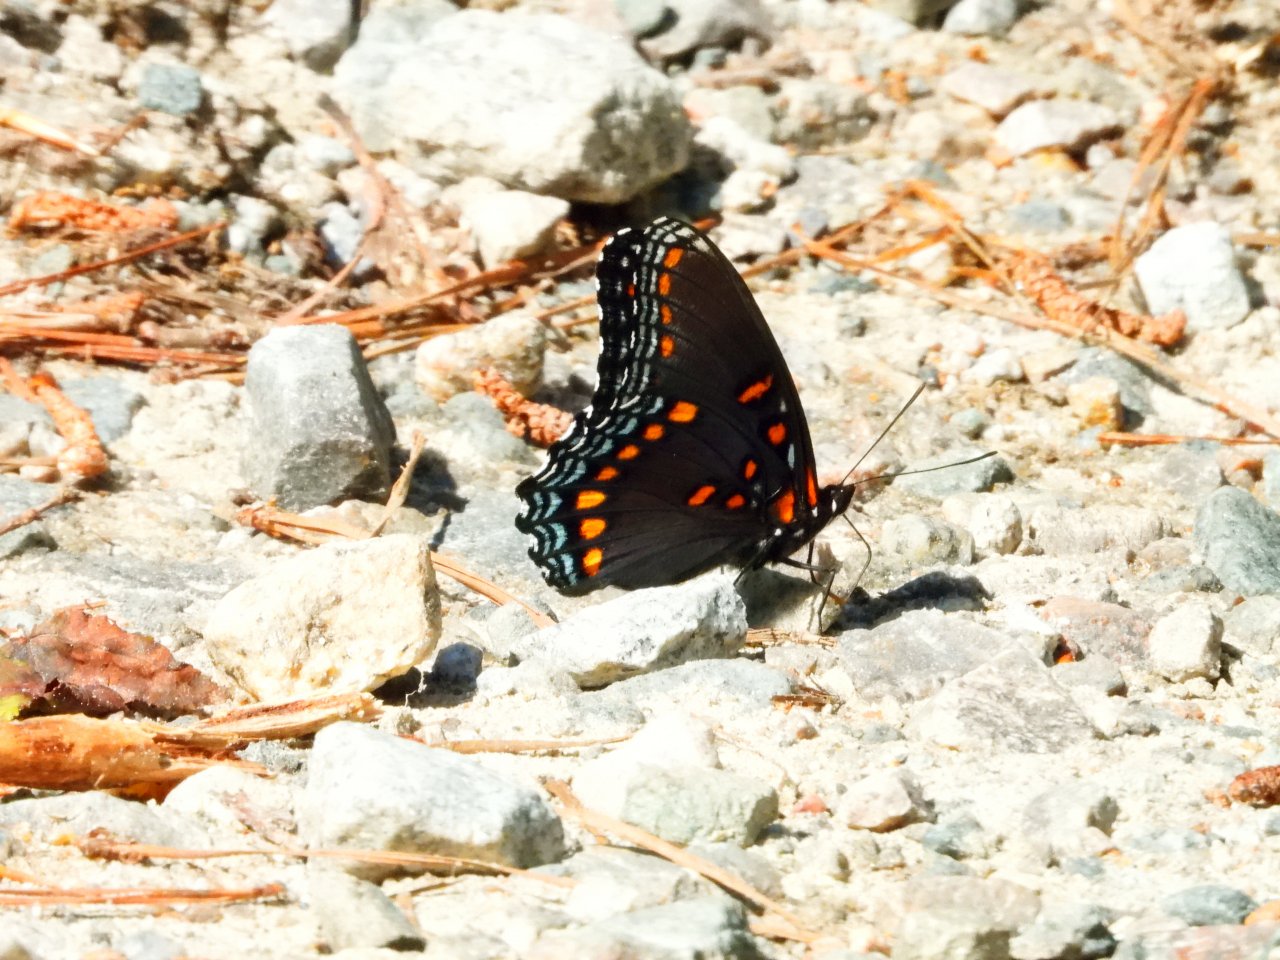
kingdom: Animalia
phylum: Arthropoda
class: Insecta
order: Lepidoptera
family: Nymphalidae
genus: Limenitis
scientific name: Limenitis arthemis
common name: Red-spotted Admiral
